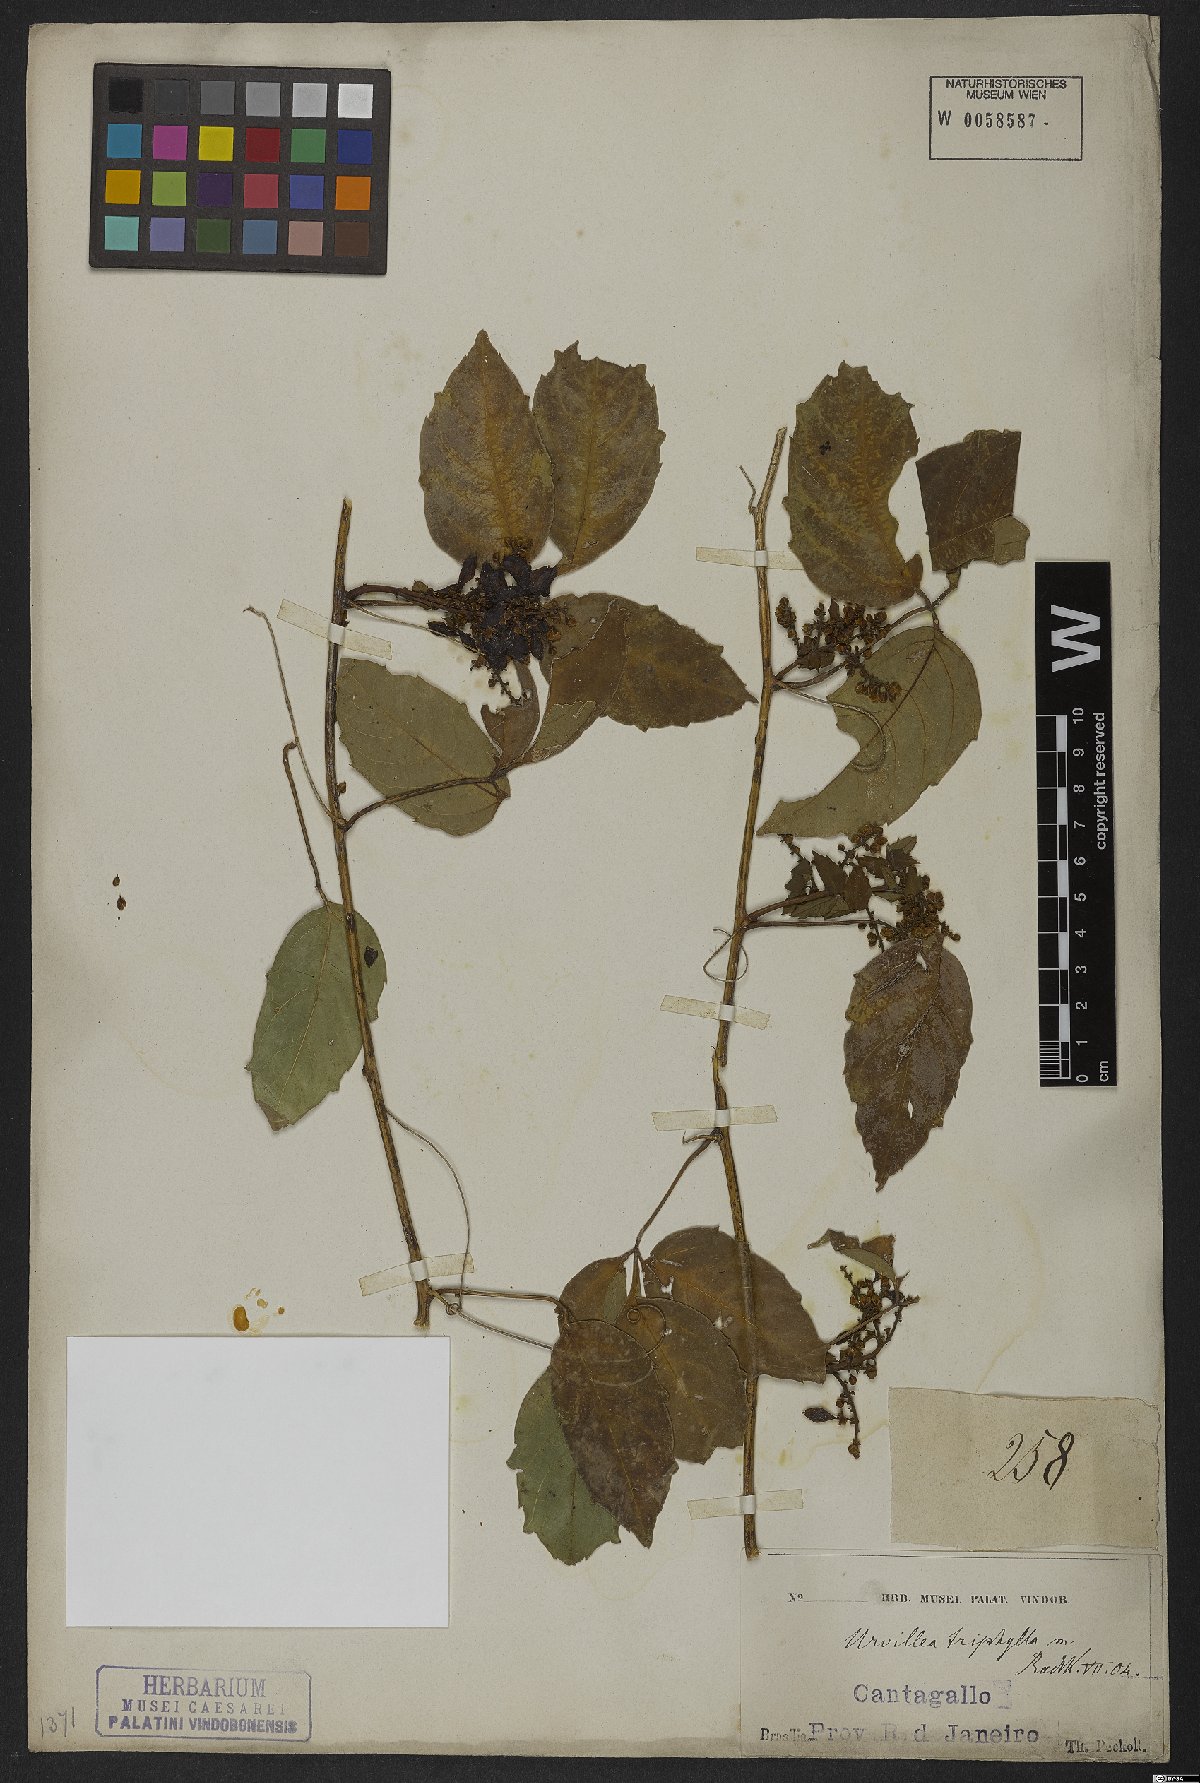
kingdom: Plantae
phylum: Tracheophyta
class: Magnoliopsida
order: Sapindales
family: Sapindaceae
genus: Urvillea
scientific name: Urvillea triphylla
